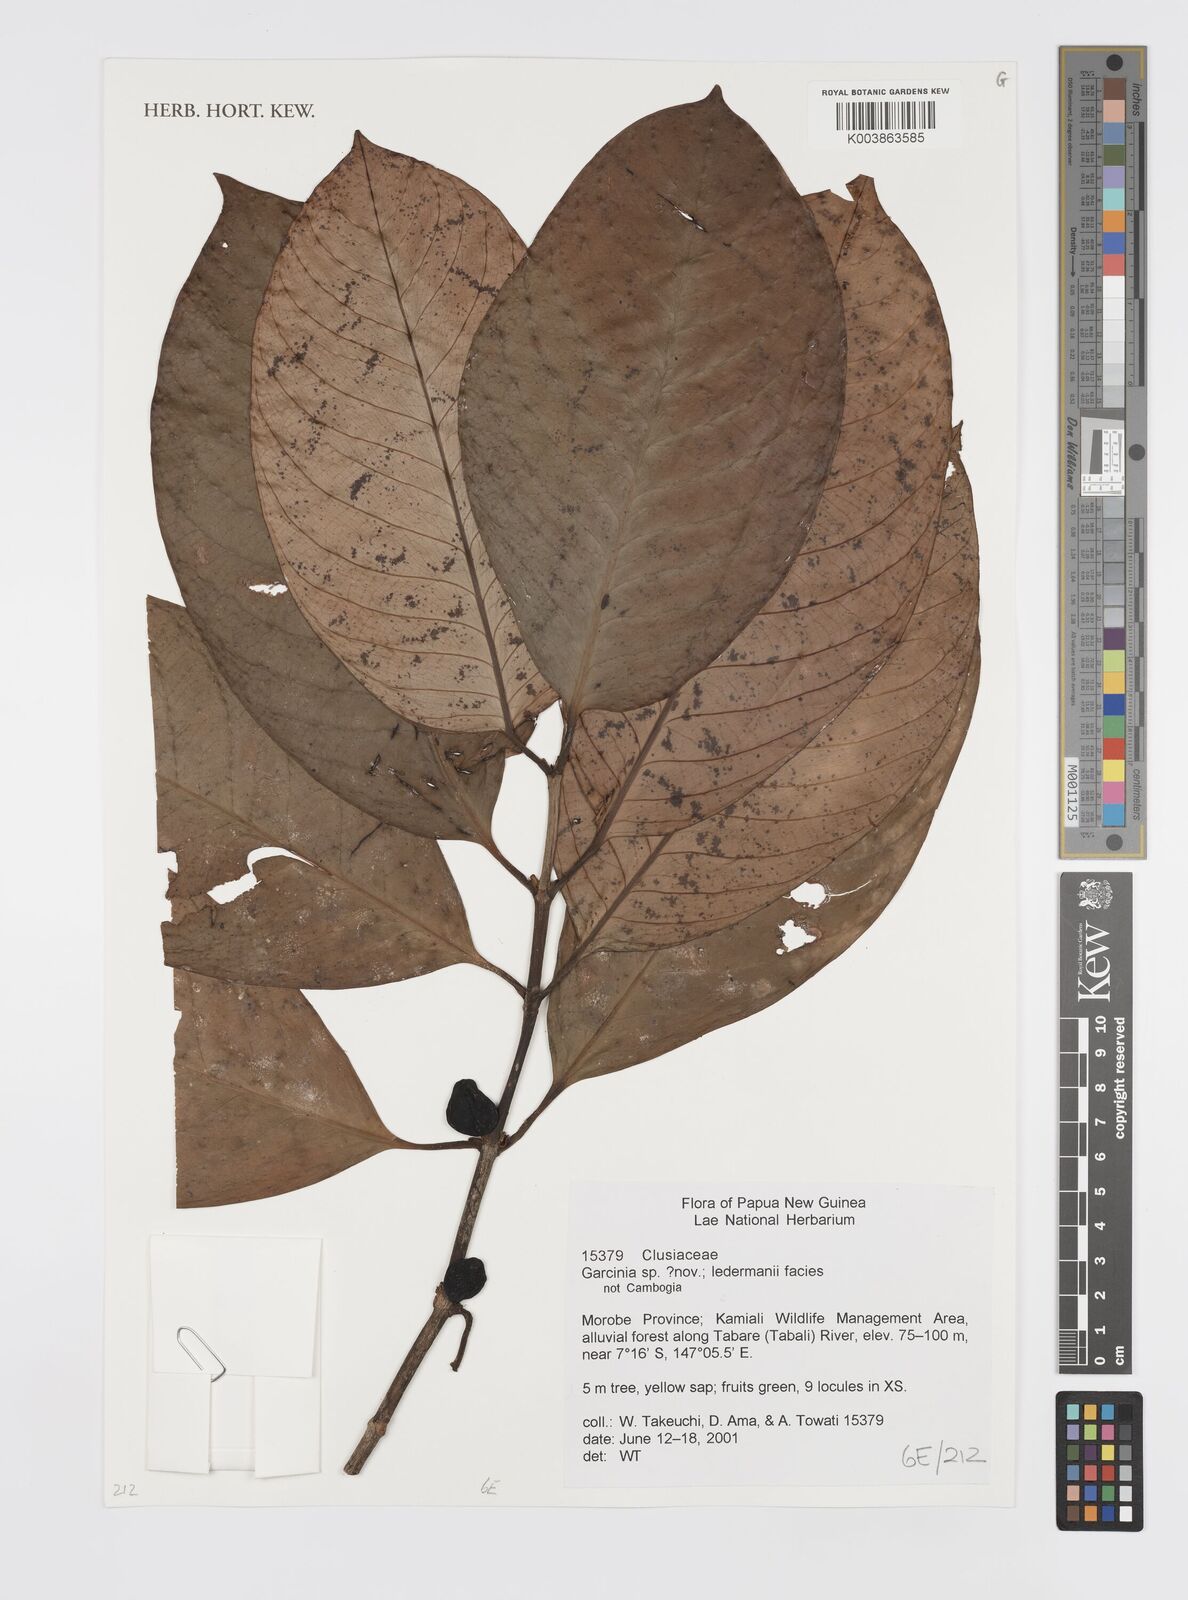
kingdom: Plantae
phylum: Tracheophyta
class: Magnoliopsida
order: Malpighiales
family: Clusiaceae
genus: Garcinia
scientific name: Garcinia
